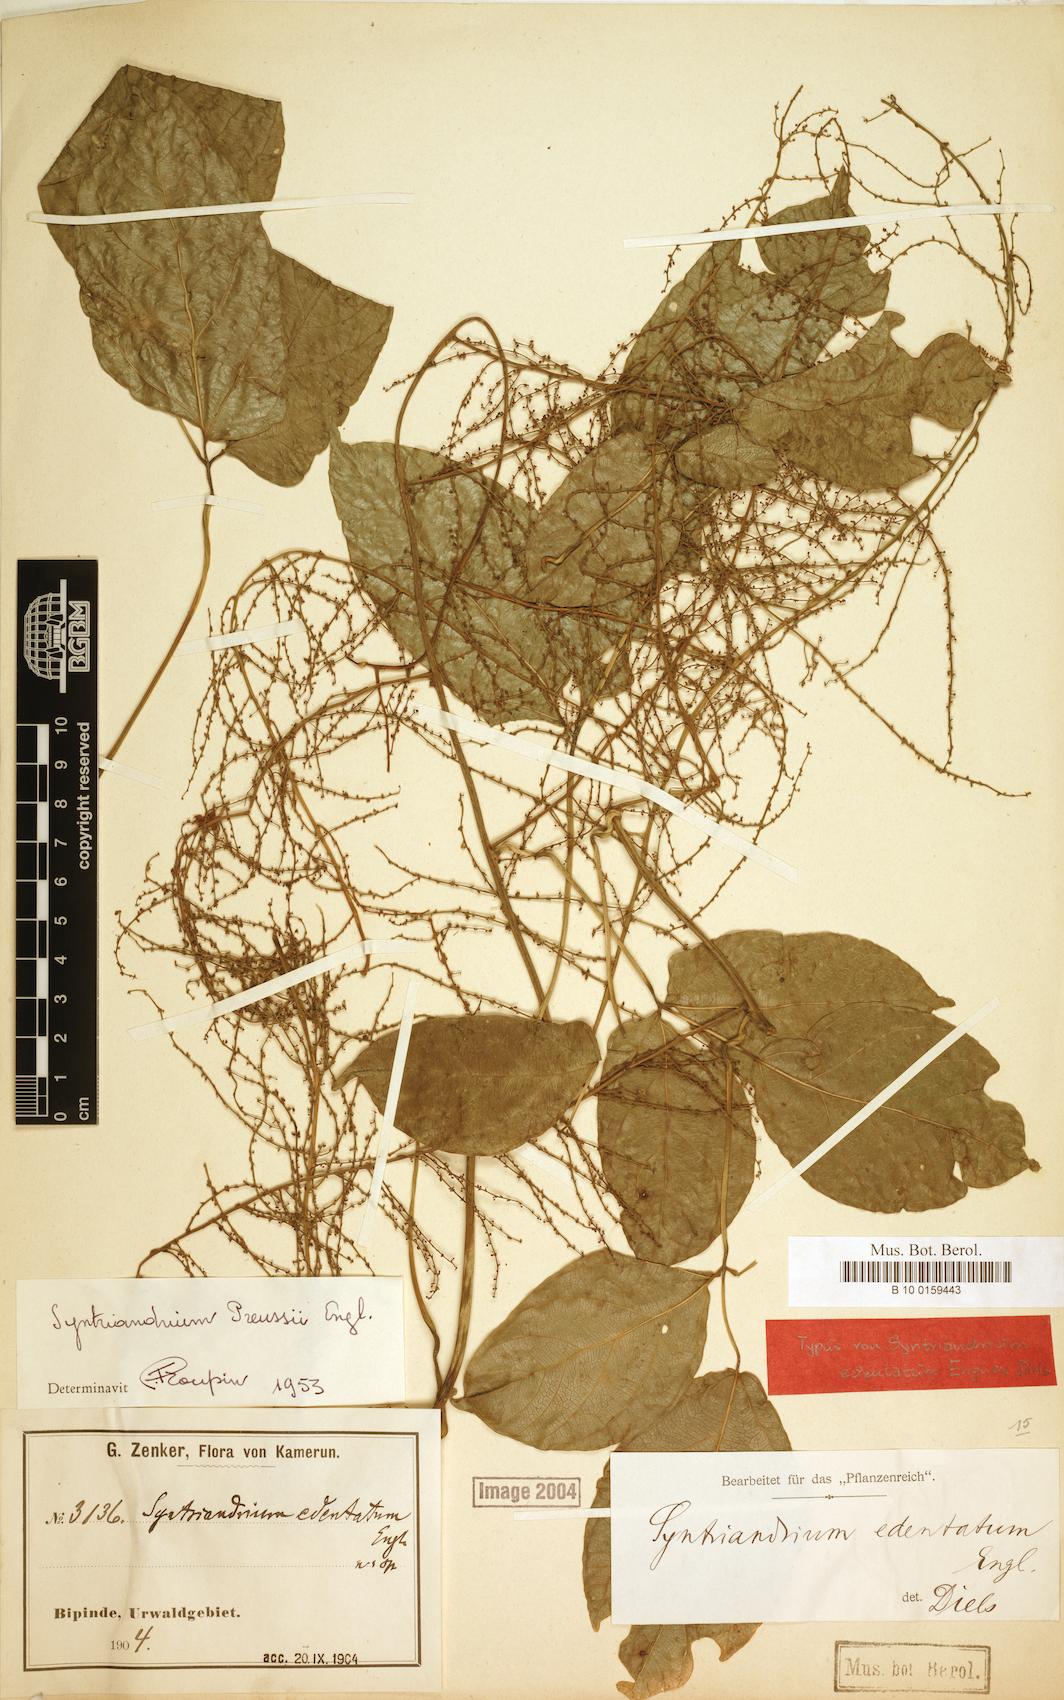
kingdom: Plantae
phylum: Tracheophyta
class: Magnoliopsida
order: Ranunculales
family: Menispermaceae
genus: Syntriandrium
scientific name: Syntriandrium preussii
